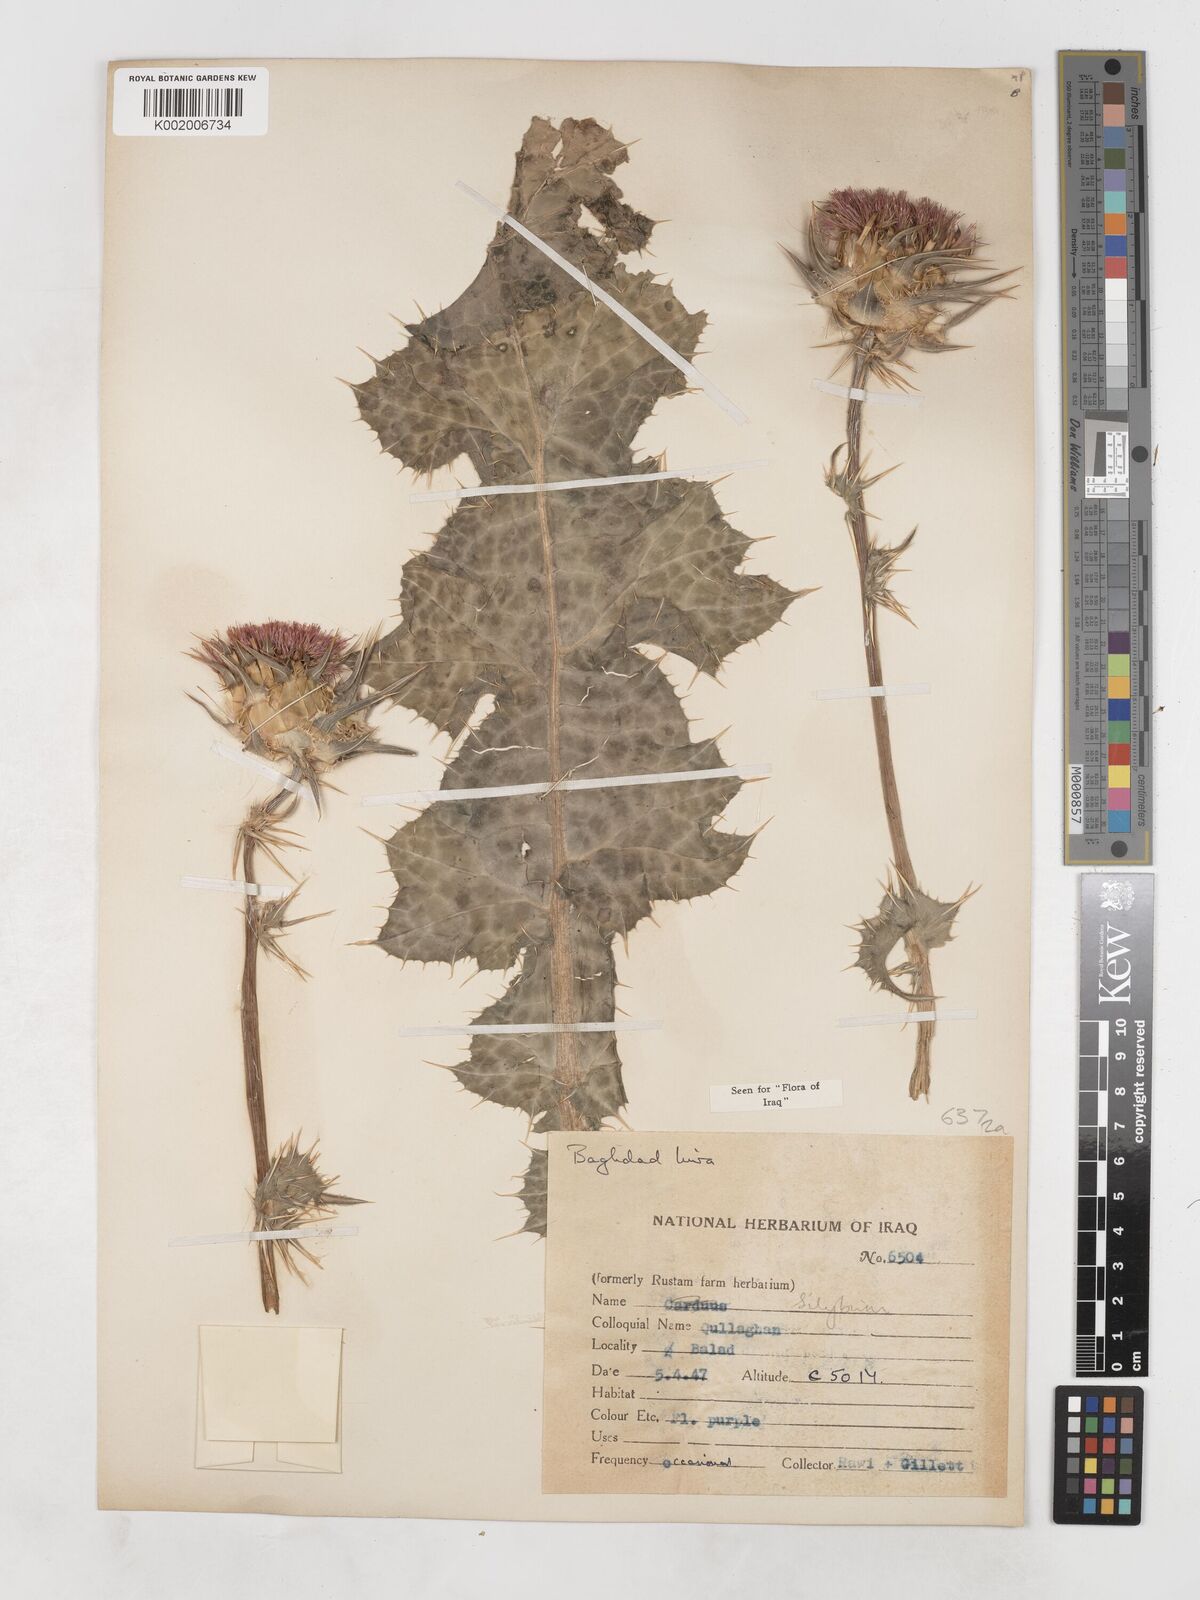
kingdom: Plantae
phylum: Tracheophyta
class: Magnoliopsida
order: Asterales
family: Asteraceae
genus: Silybum
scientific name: Silybum
